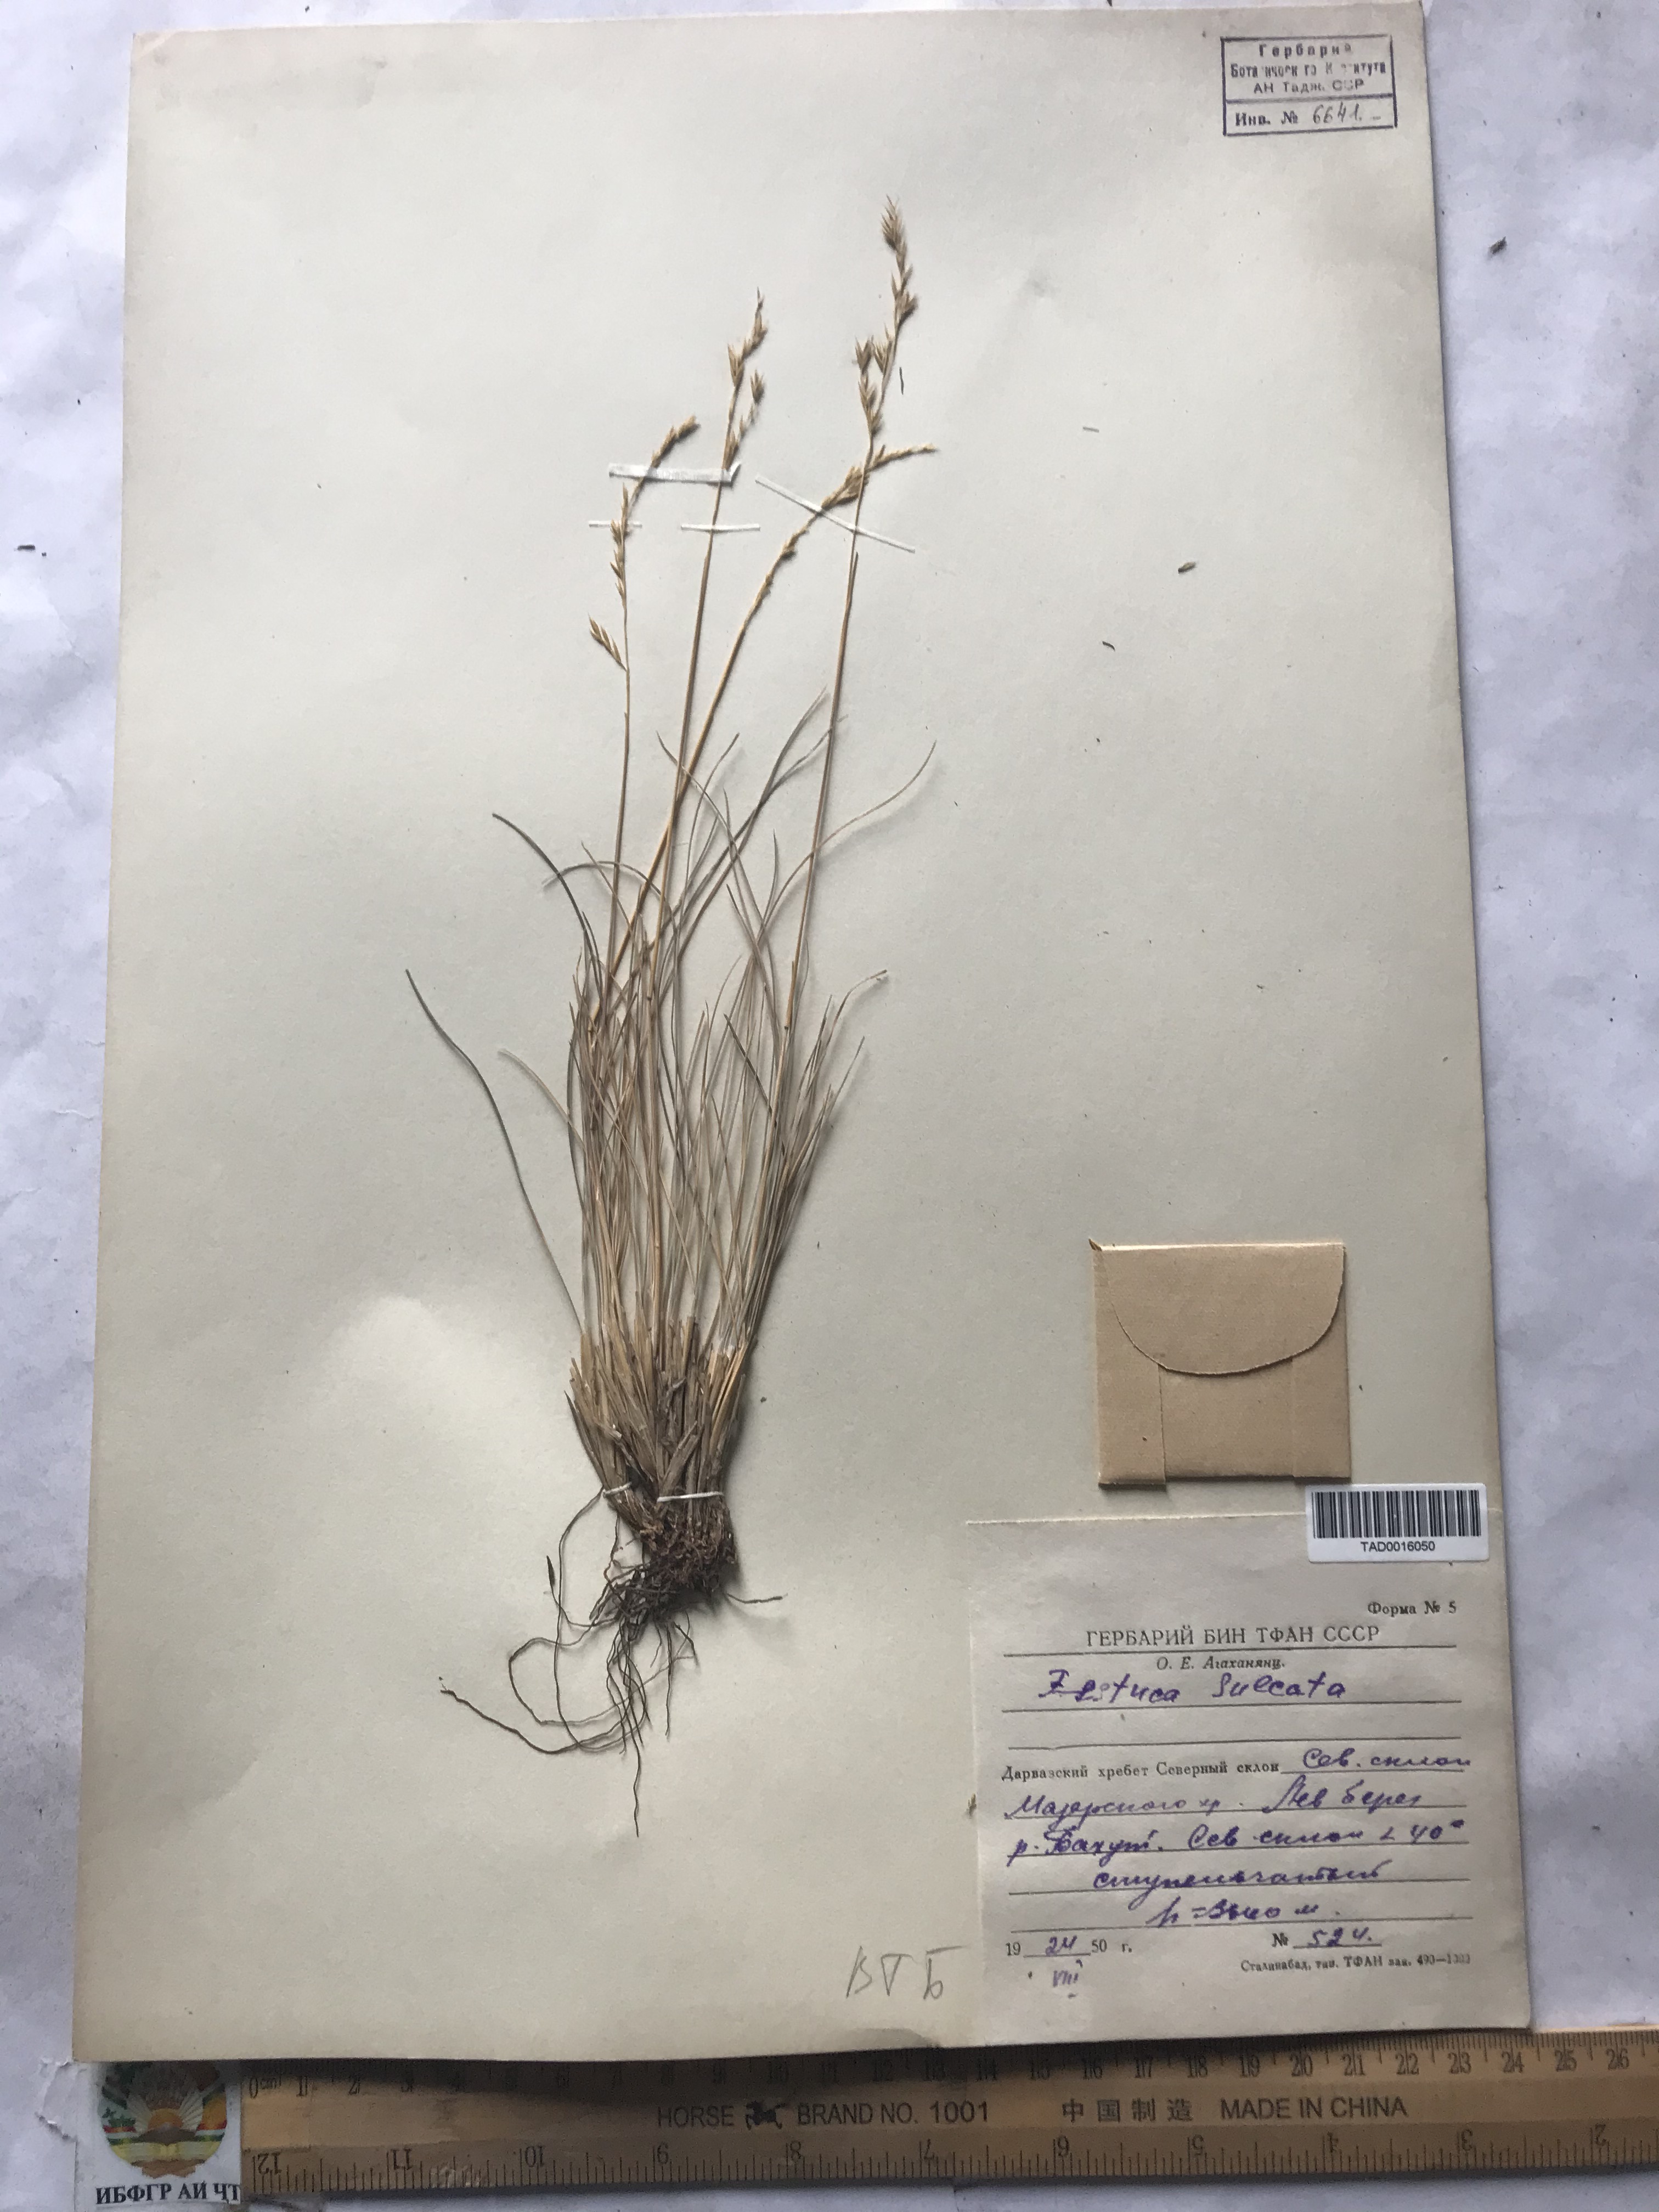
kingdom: Plantae
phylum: Tracheophyta
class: Liliopsida
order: Poales
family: Poaceae
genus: Festuca
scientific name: Festuca sulcata
